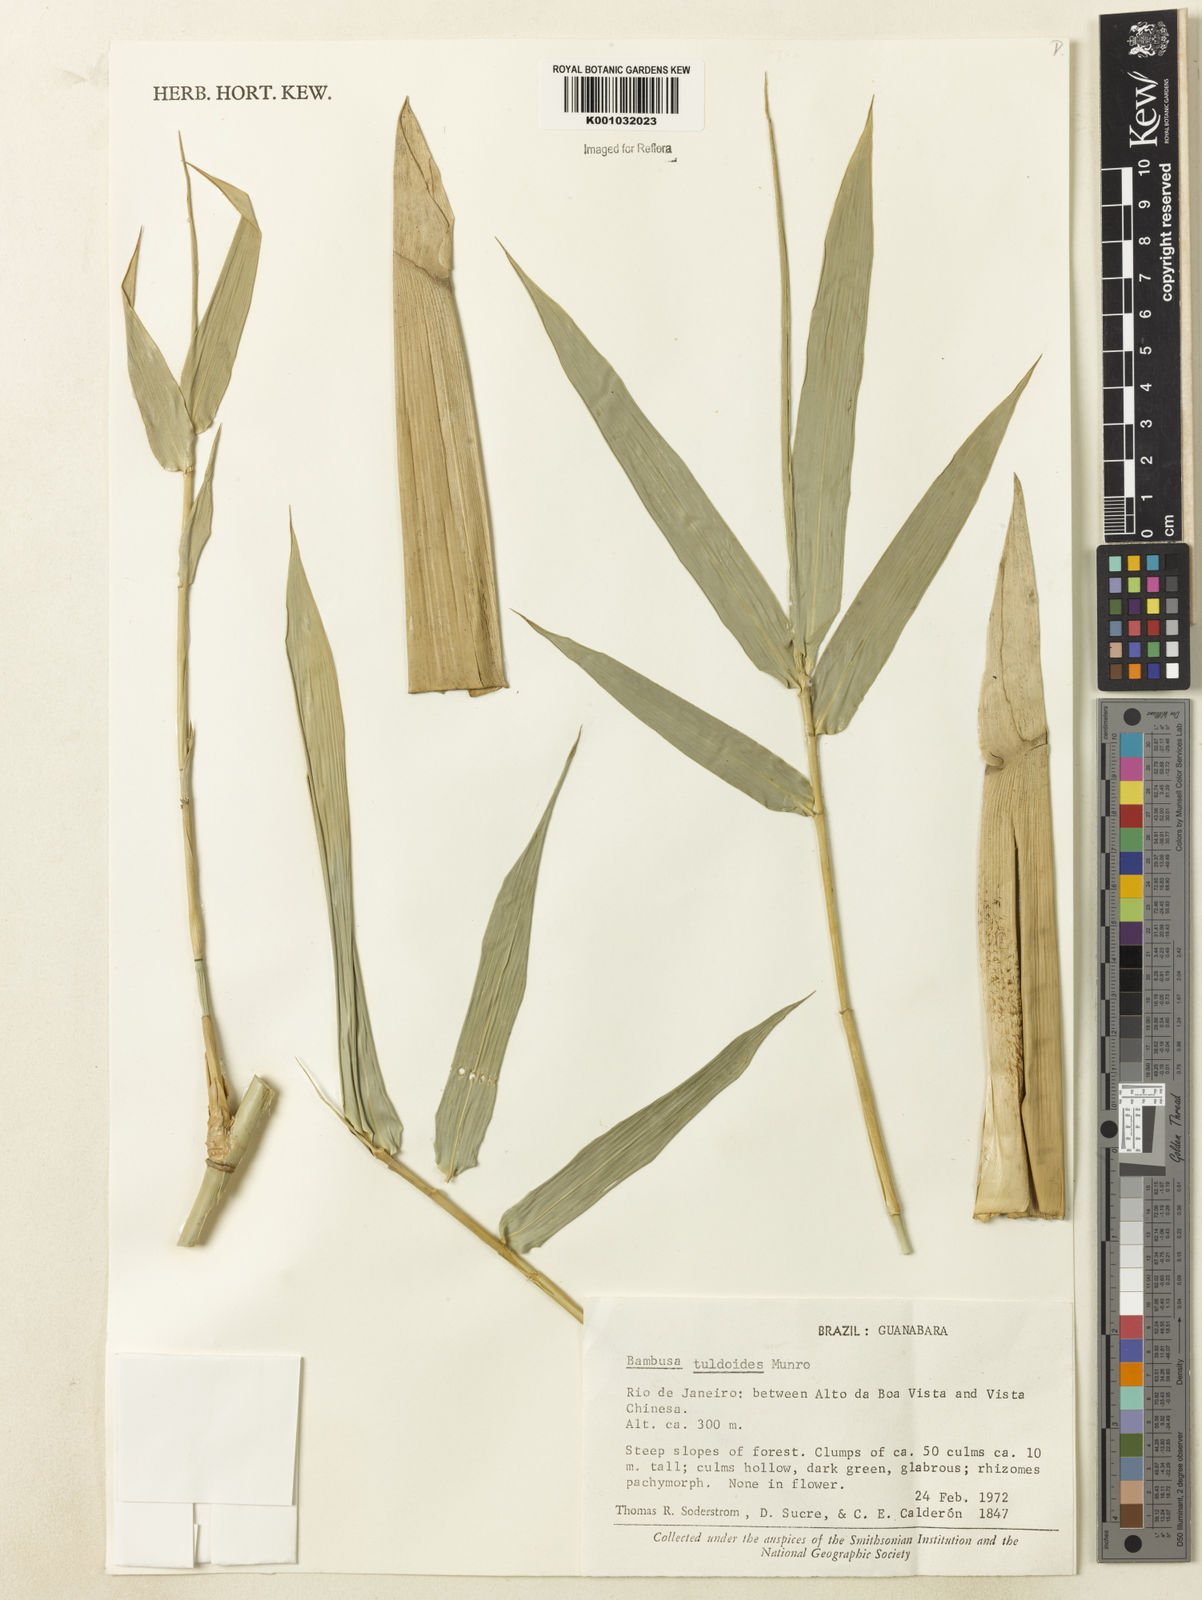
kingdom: Plantae
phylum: Tracheophyta
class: Liliopsida
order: Poales
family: Poaceae
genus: Bambusa
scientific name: Bambusa tuldoides
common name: Verdant bamboo
